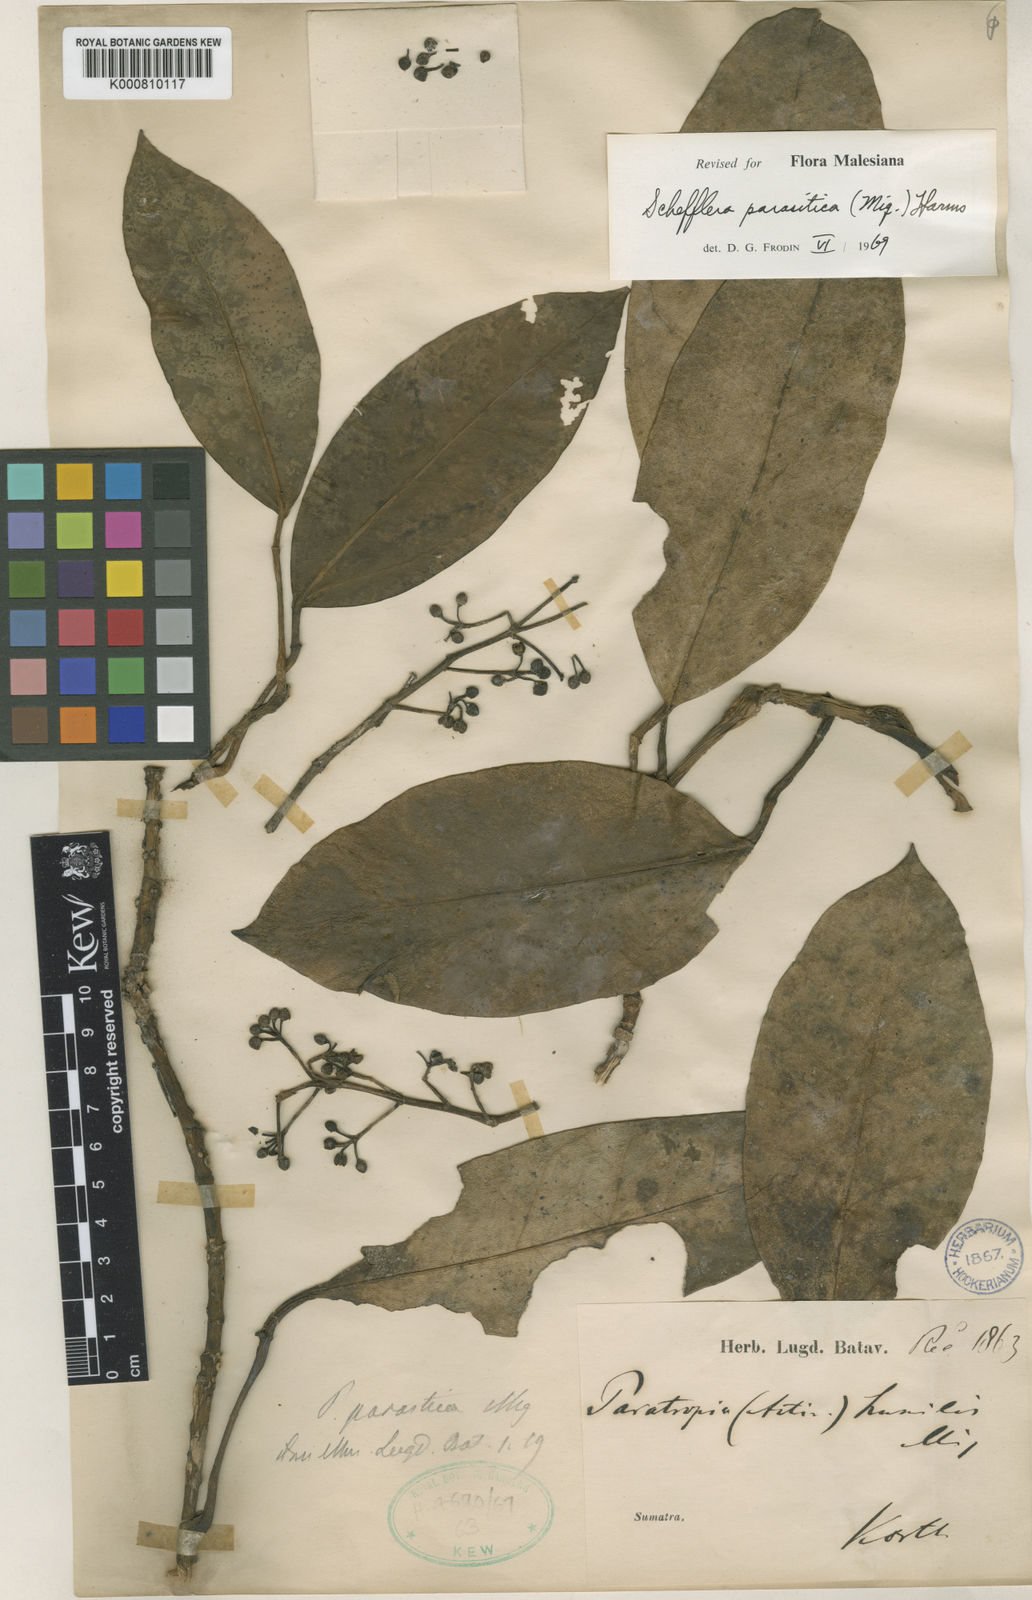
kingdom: Plantae
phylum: Tracheophyta
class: Magnoliopsida
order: Apiales
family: Araliaceae
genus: Heptapleurum
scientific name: Heptapleurum parasiticum
